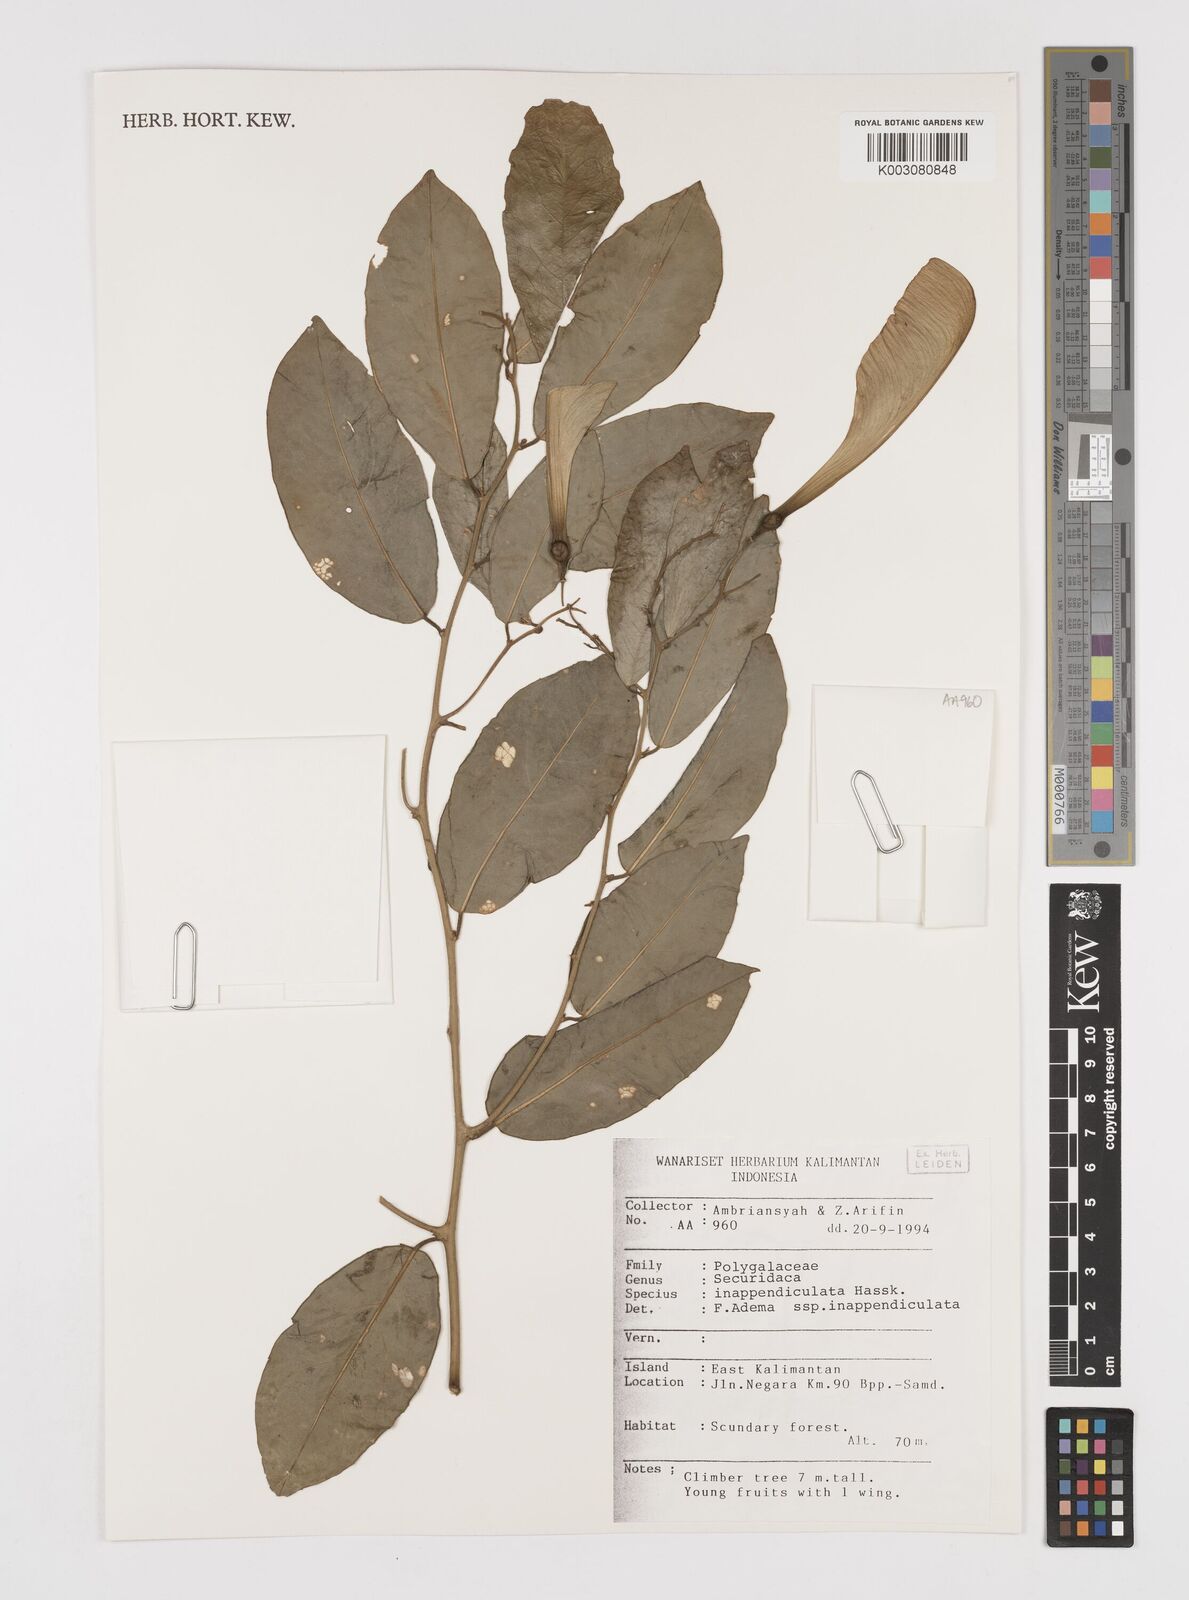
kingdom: Plantae
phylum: Tracheophyta
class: Magnoliopsida
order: Fabales
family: Polygalaceae
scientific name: Polygalaceae
